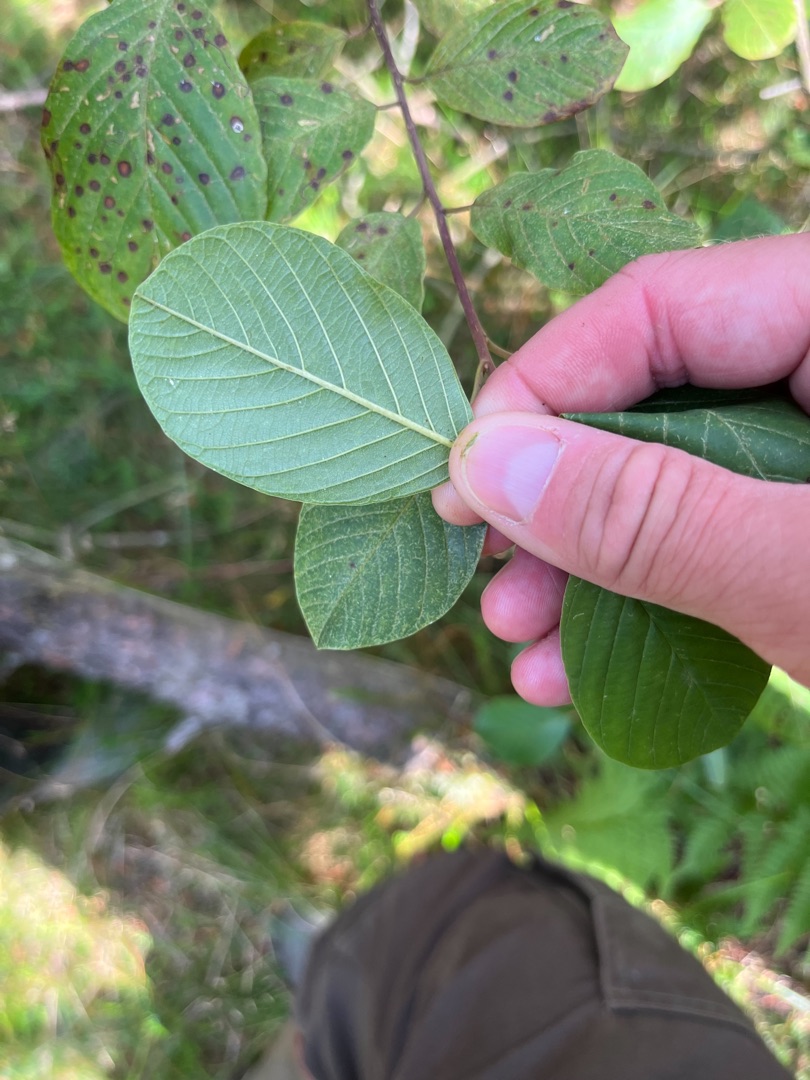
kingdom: Plantae
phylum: Tracheophyta
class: Magnoliopsida
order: Rosales
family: Rhamnaceae
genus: Frangula
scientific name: Frangula alnus
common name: Tørst
